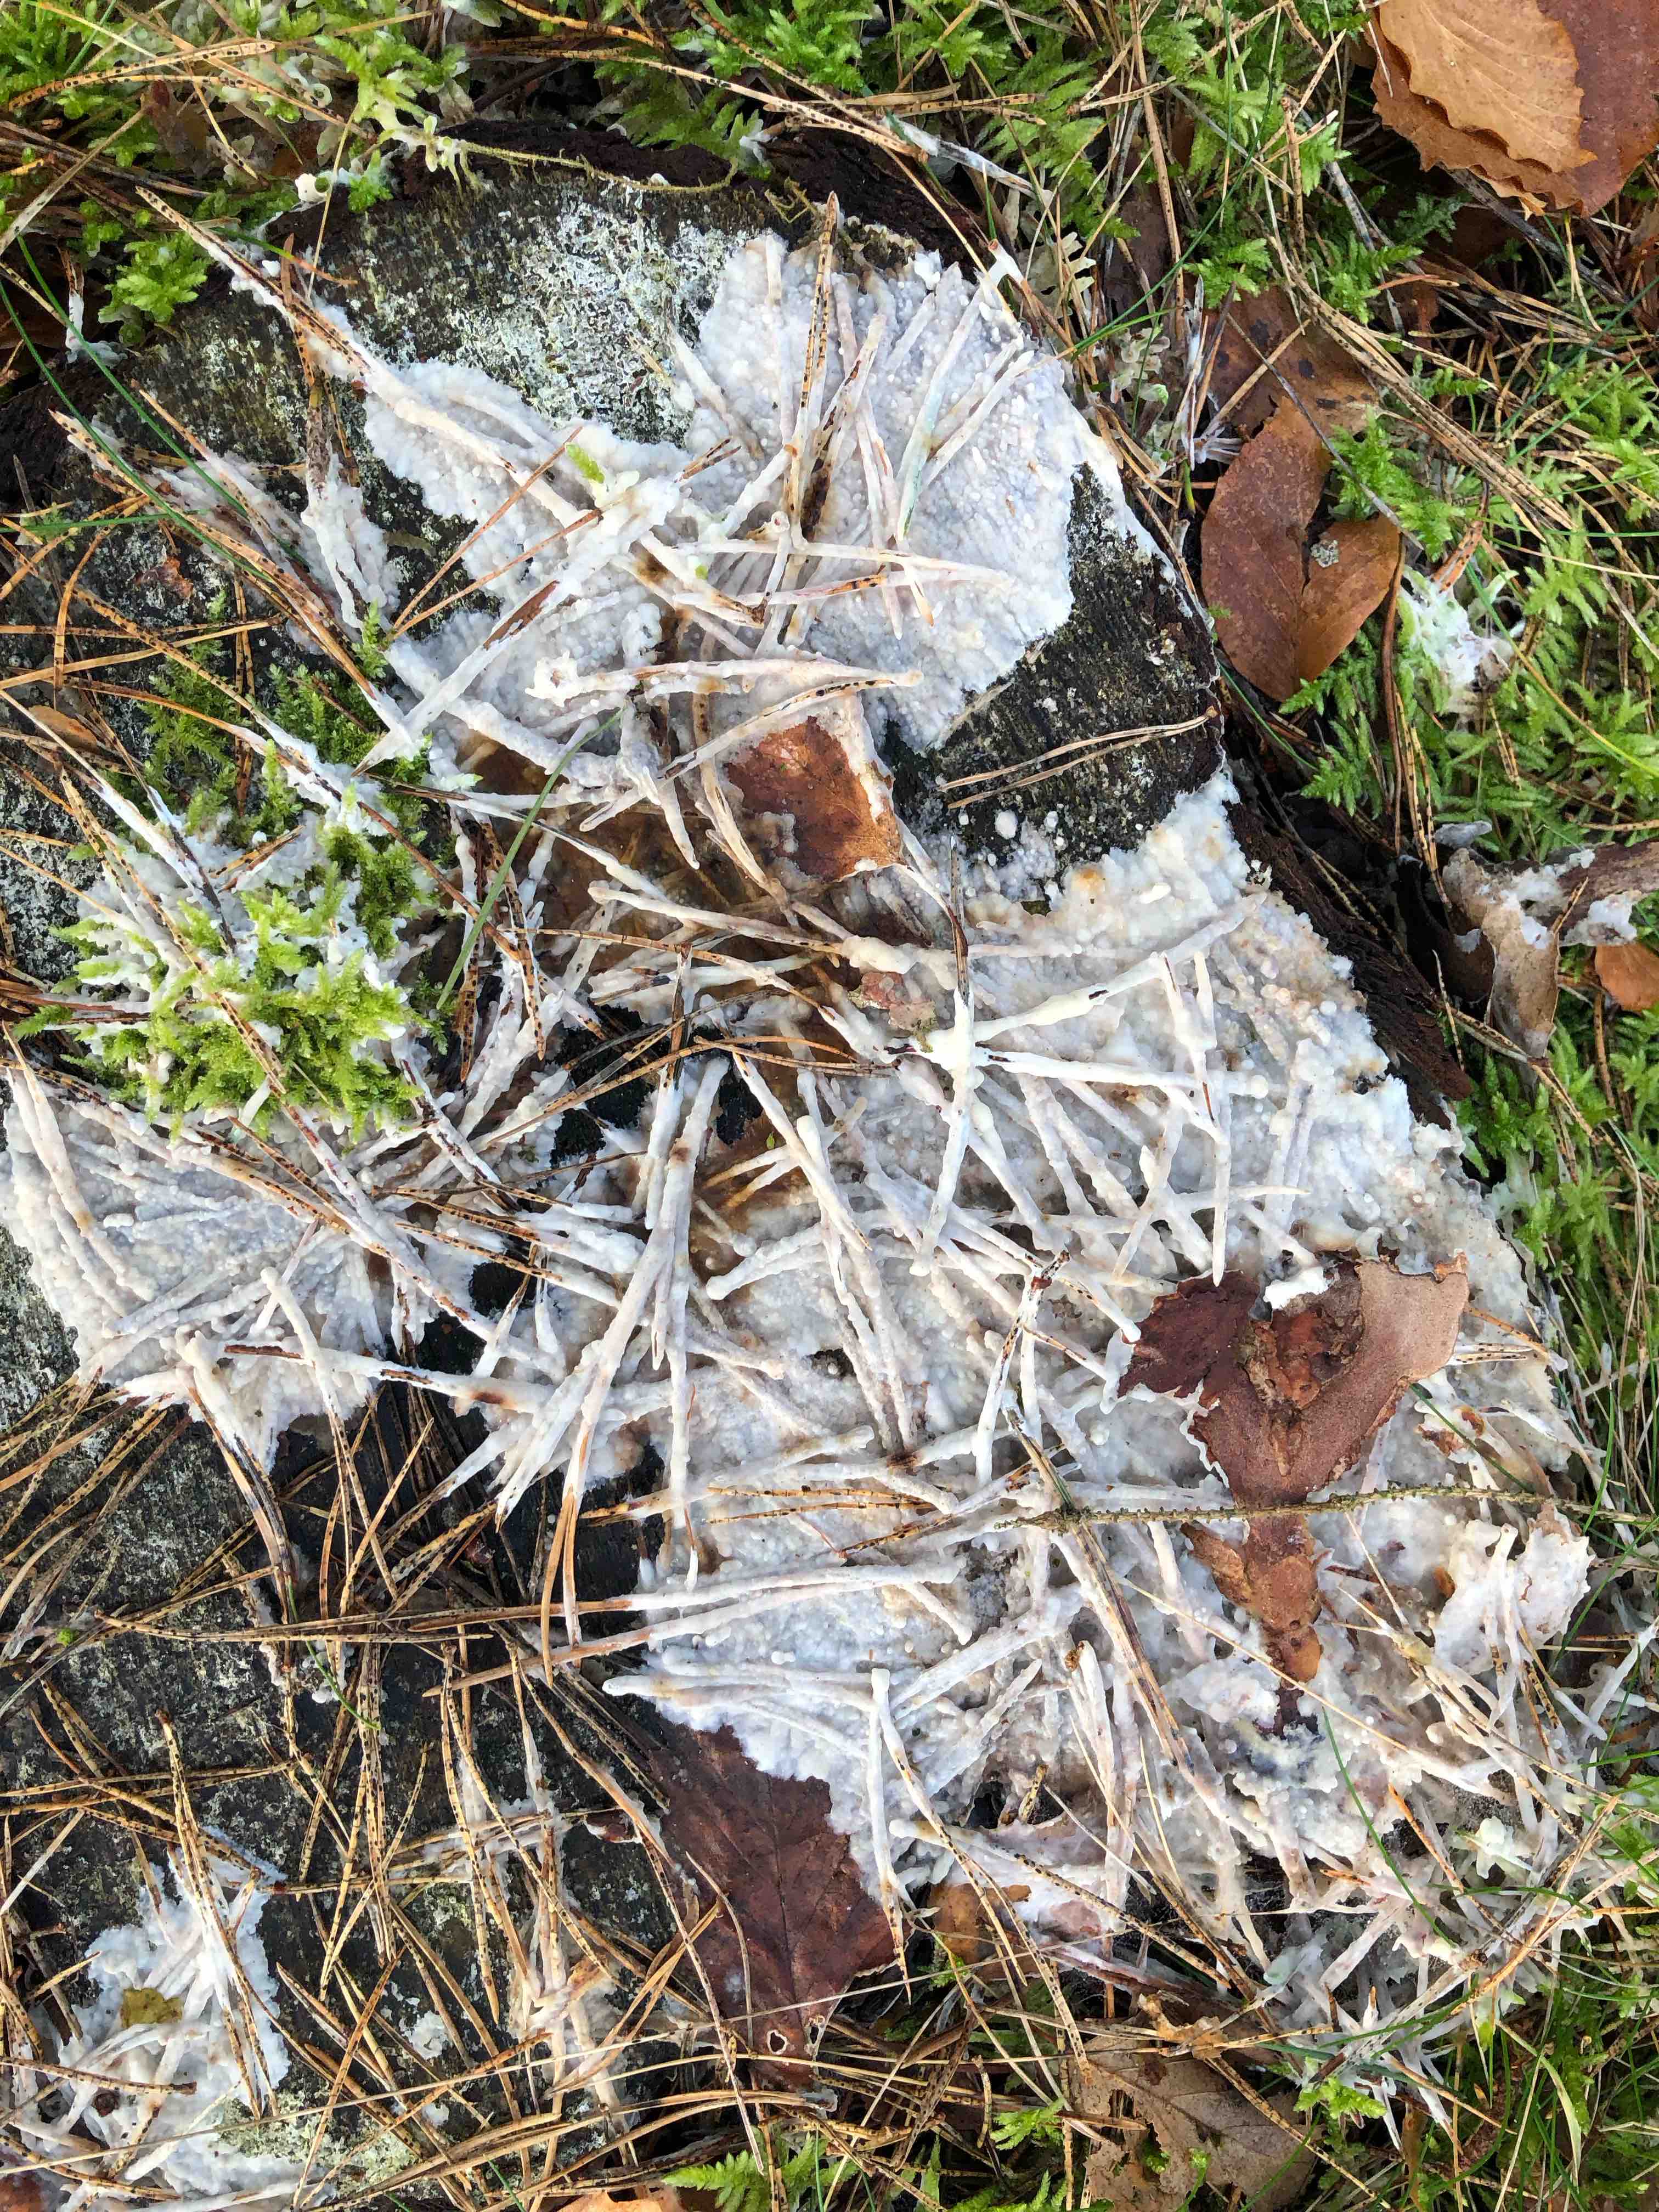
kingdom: Fungi
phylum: Basidiomycota
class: Agaricomycetes
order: Polyporales
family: Phanerochaetaceae
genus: Phlebiopsis
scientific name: Phlebiopsis gigantea
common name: kæmpebarksvamp
